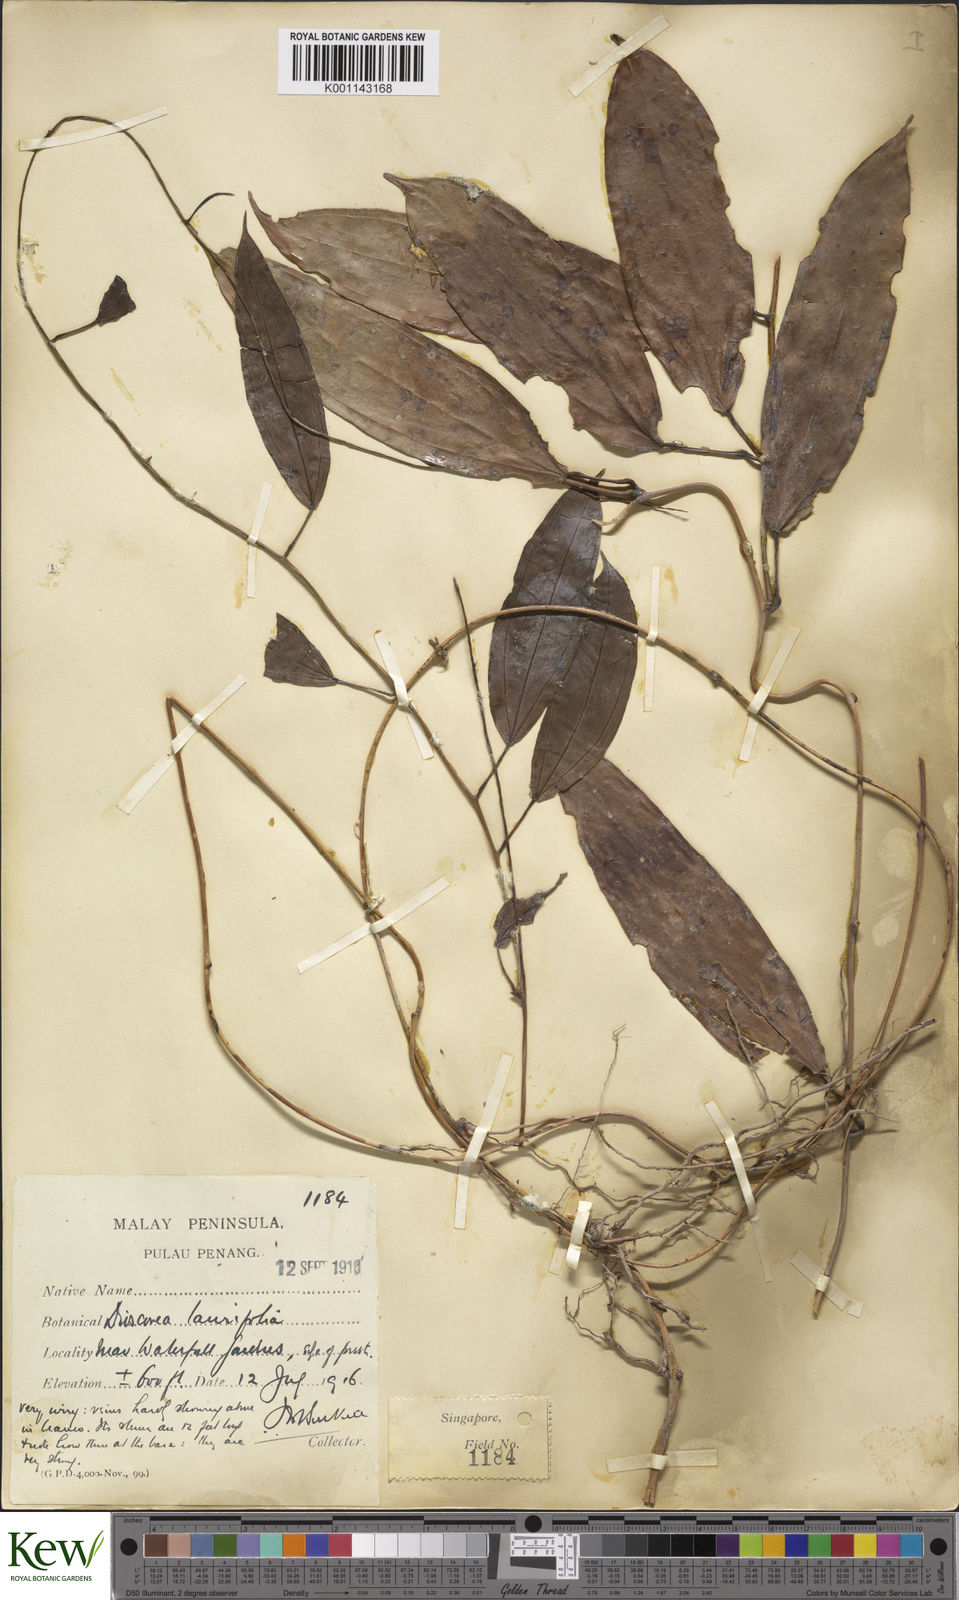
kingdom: Plantae
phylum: Tracheophyta
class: Liliopsida
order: Dioscoreales
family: Dioscoreaceae
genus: Dioscorea
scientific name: Dioscorea laurifolia
